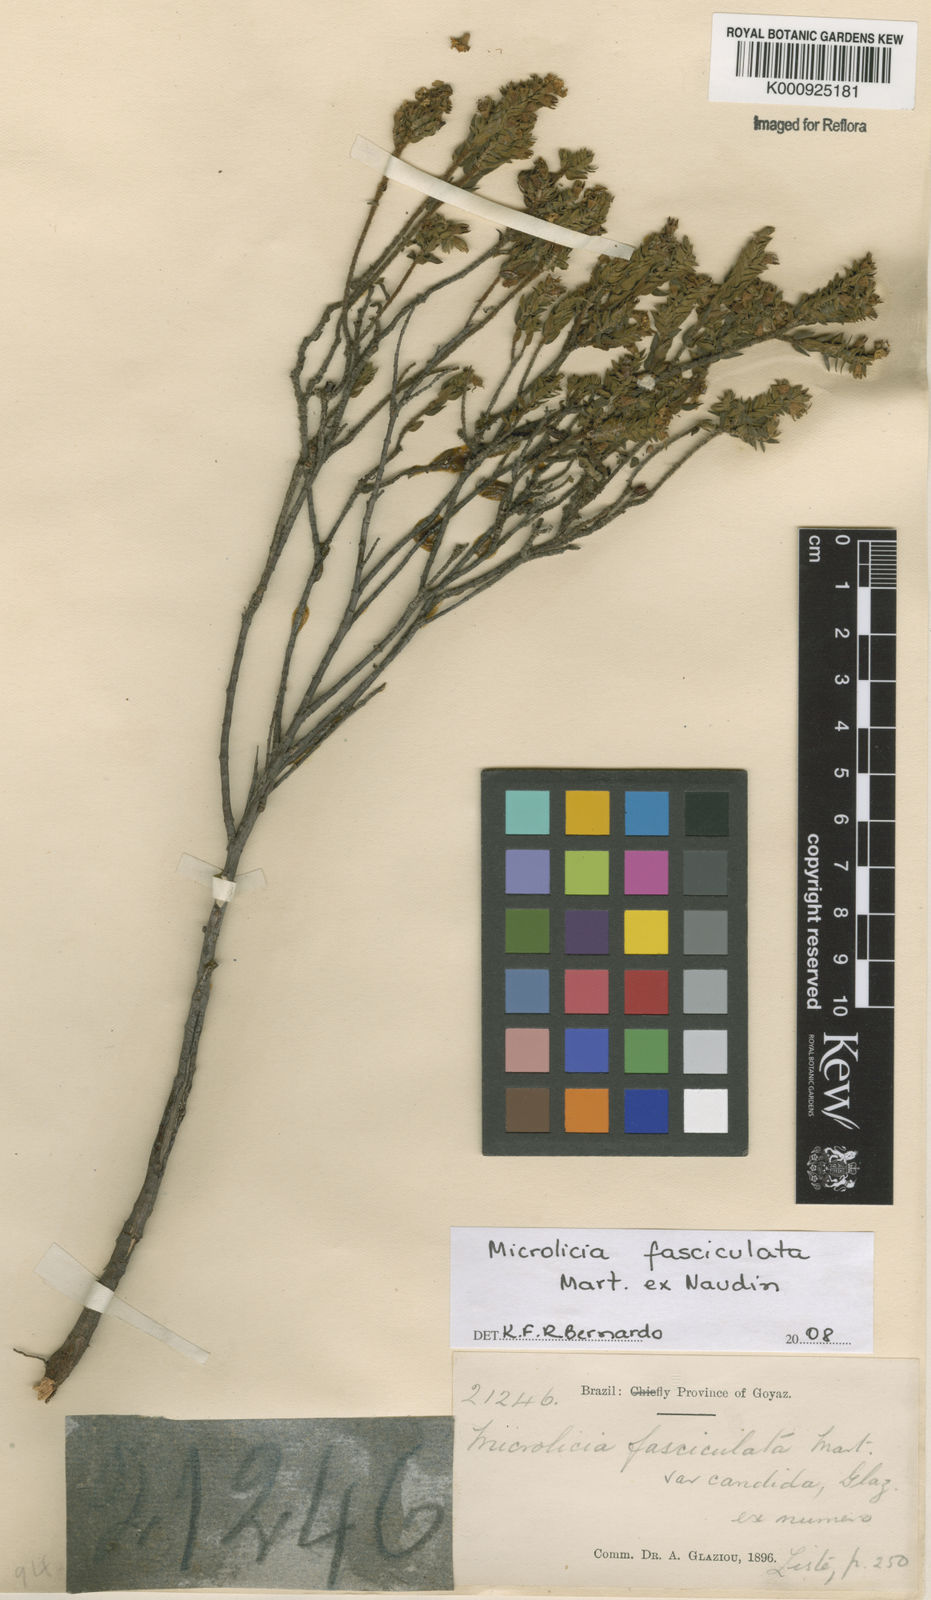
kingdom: Plantae
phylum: Tracheophyta
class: Magnoliopsida
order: Myrtales
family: Melastomataceae
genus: Microlicia
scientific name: Microlicia fasciculata
